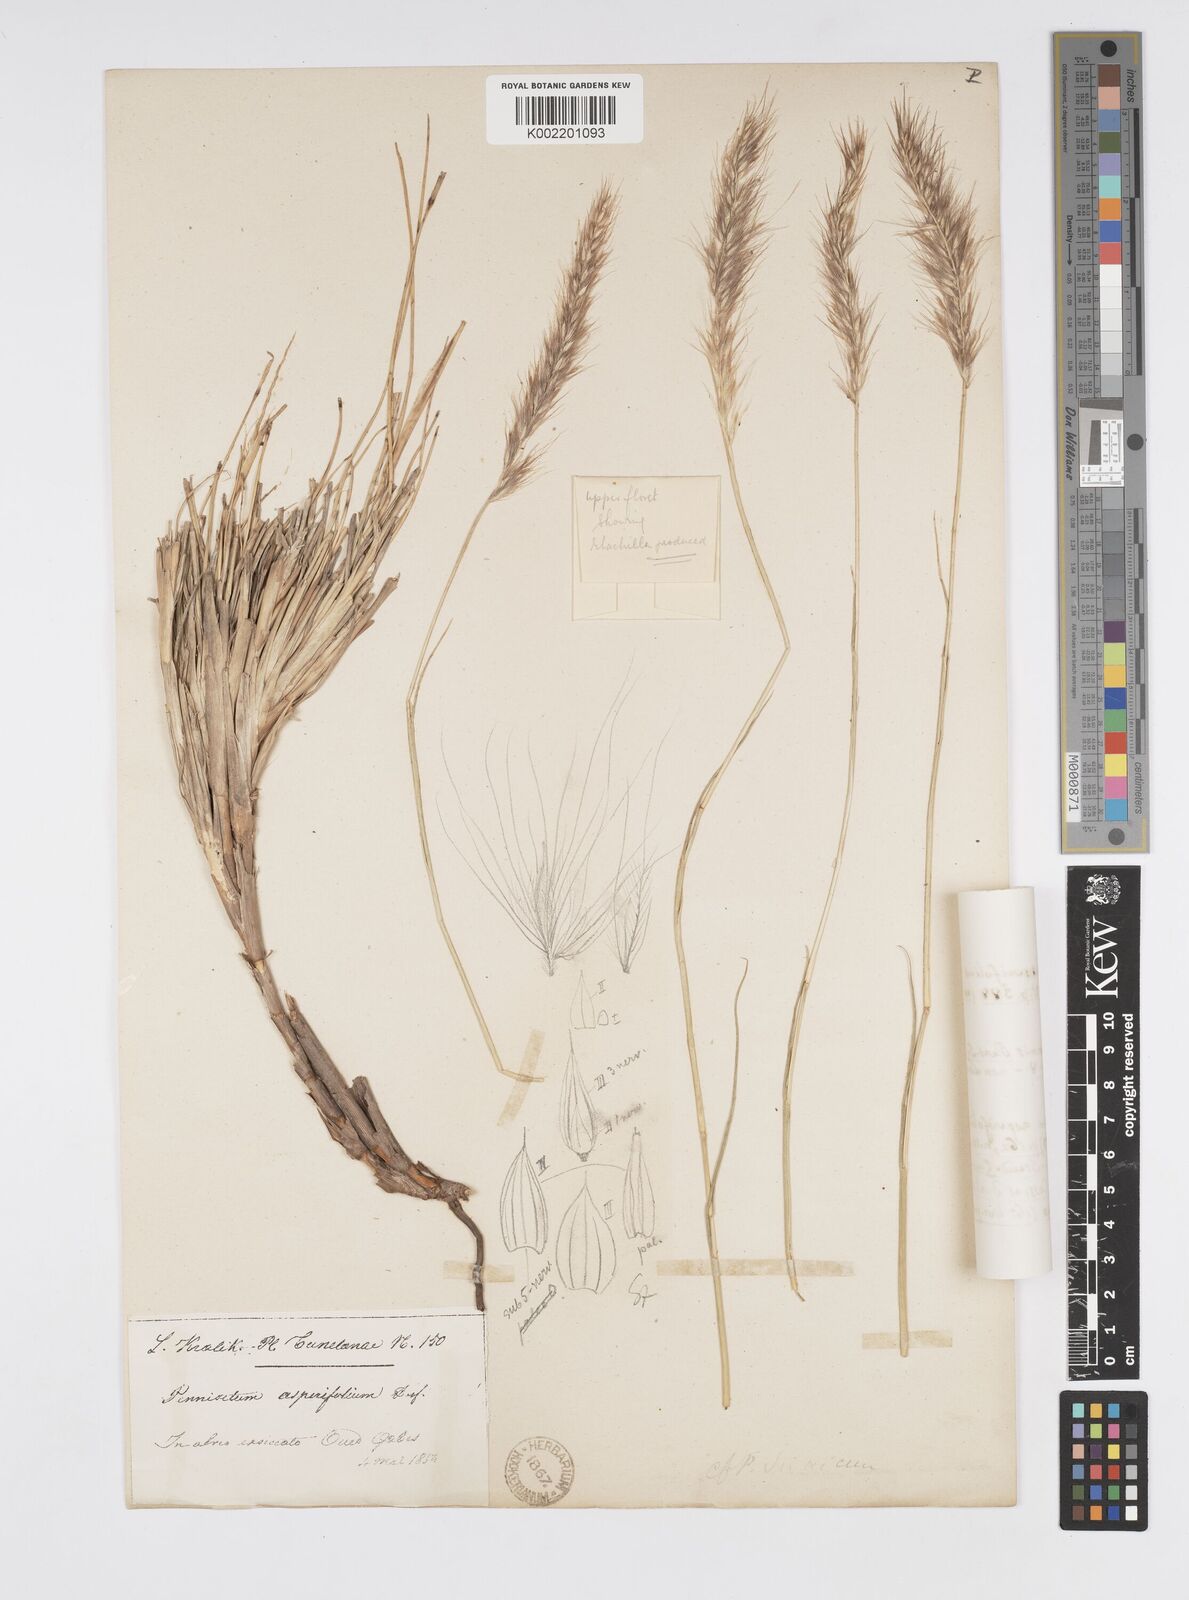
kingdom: Plantae
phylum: Tracheophyta
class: Liliopsida
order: Poales
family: Poaceae
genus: Cenchrus
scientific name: Cenchrus setaceus
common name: Crimson fountaingrass
